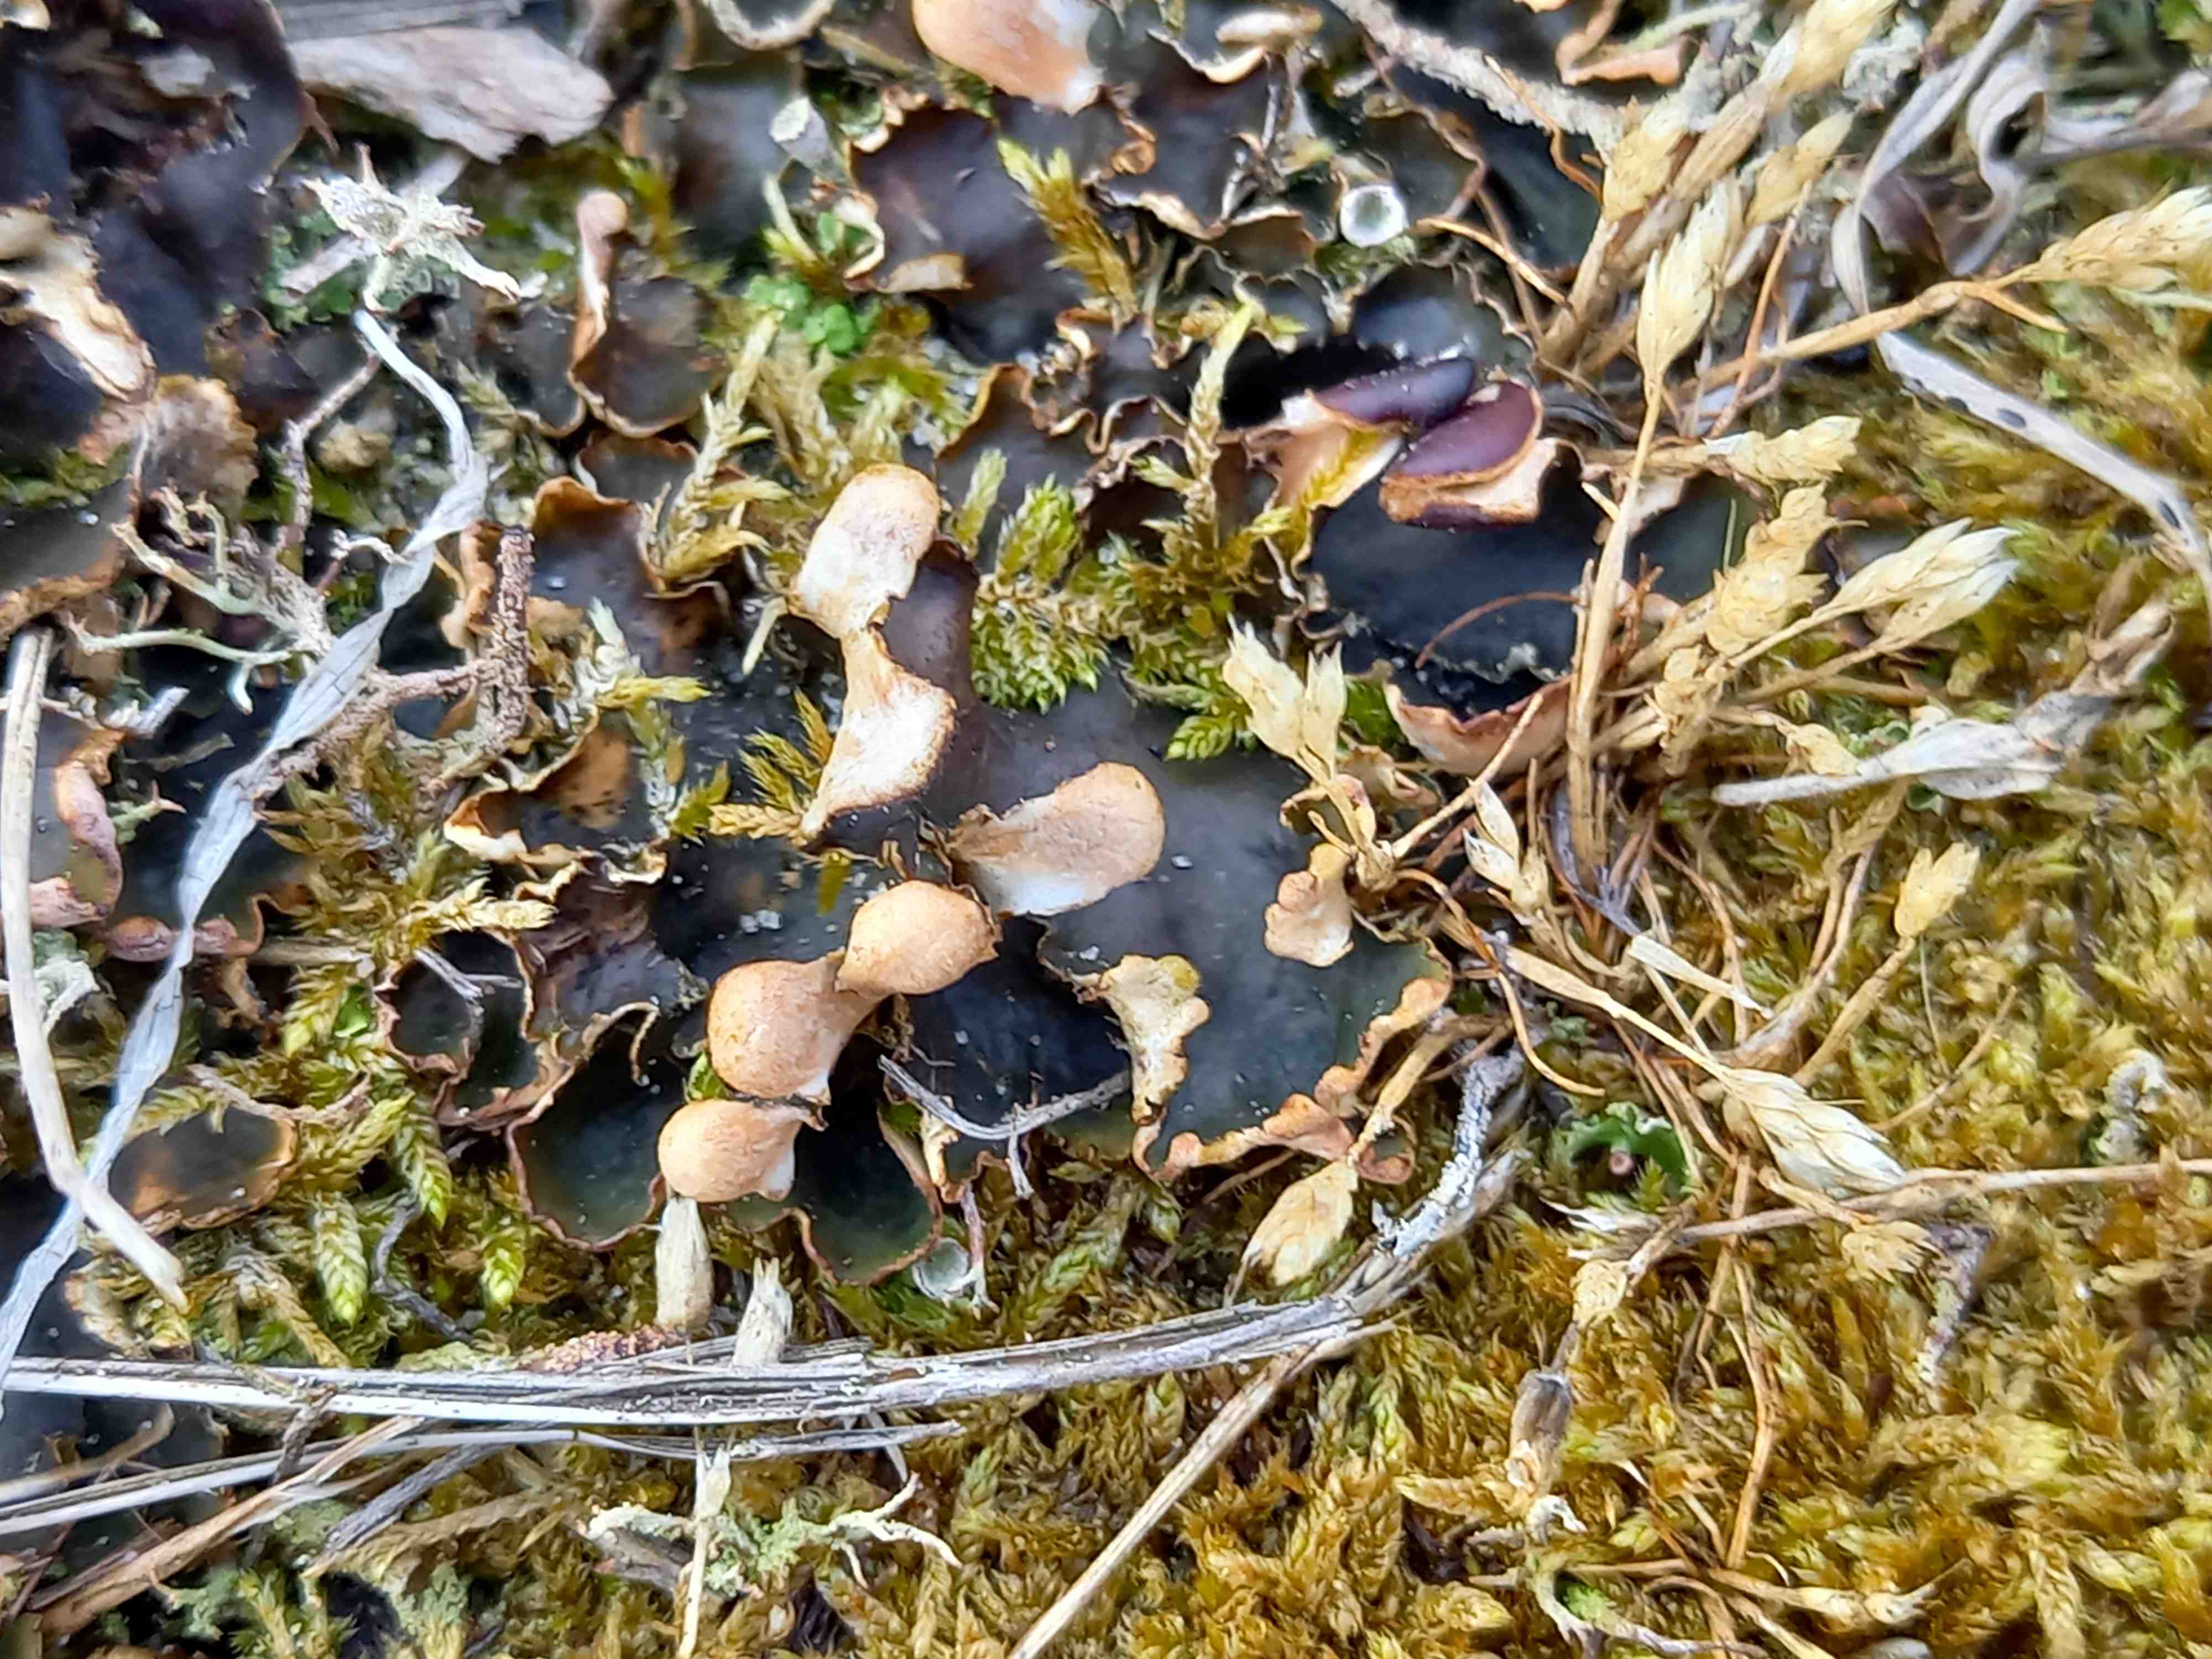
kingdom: Fungi
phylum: Ascomycota
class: Lecanoromycetes
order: Peltigerales
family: Peltigeraceae
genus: Peltigera
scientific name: Peltigera
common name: skjoldlav
